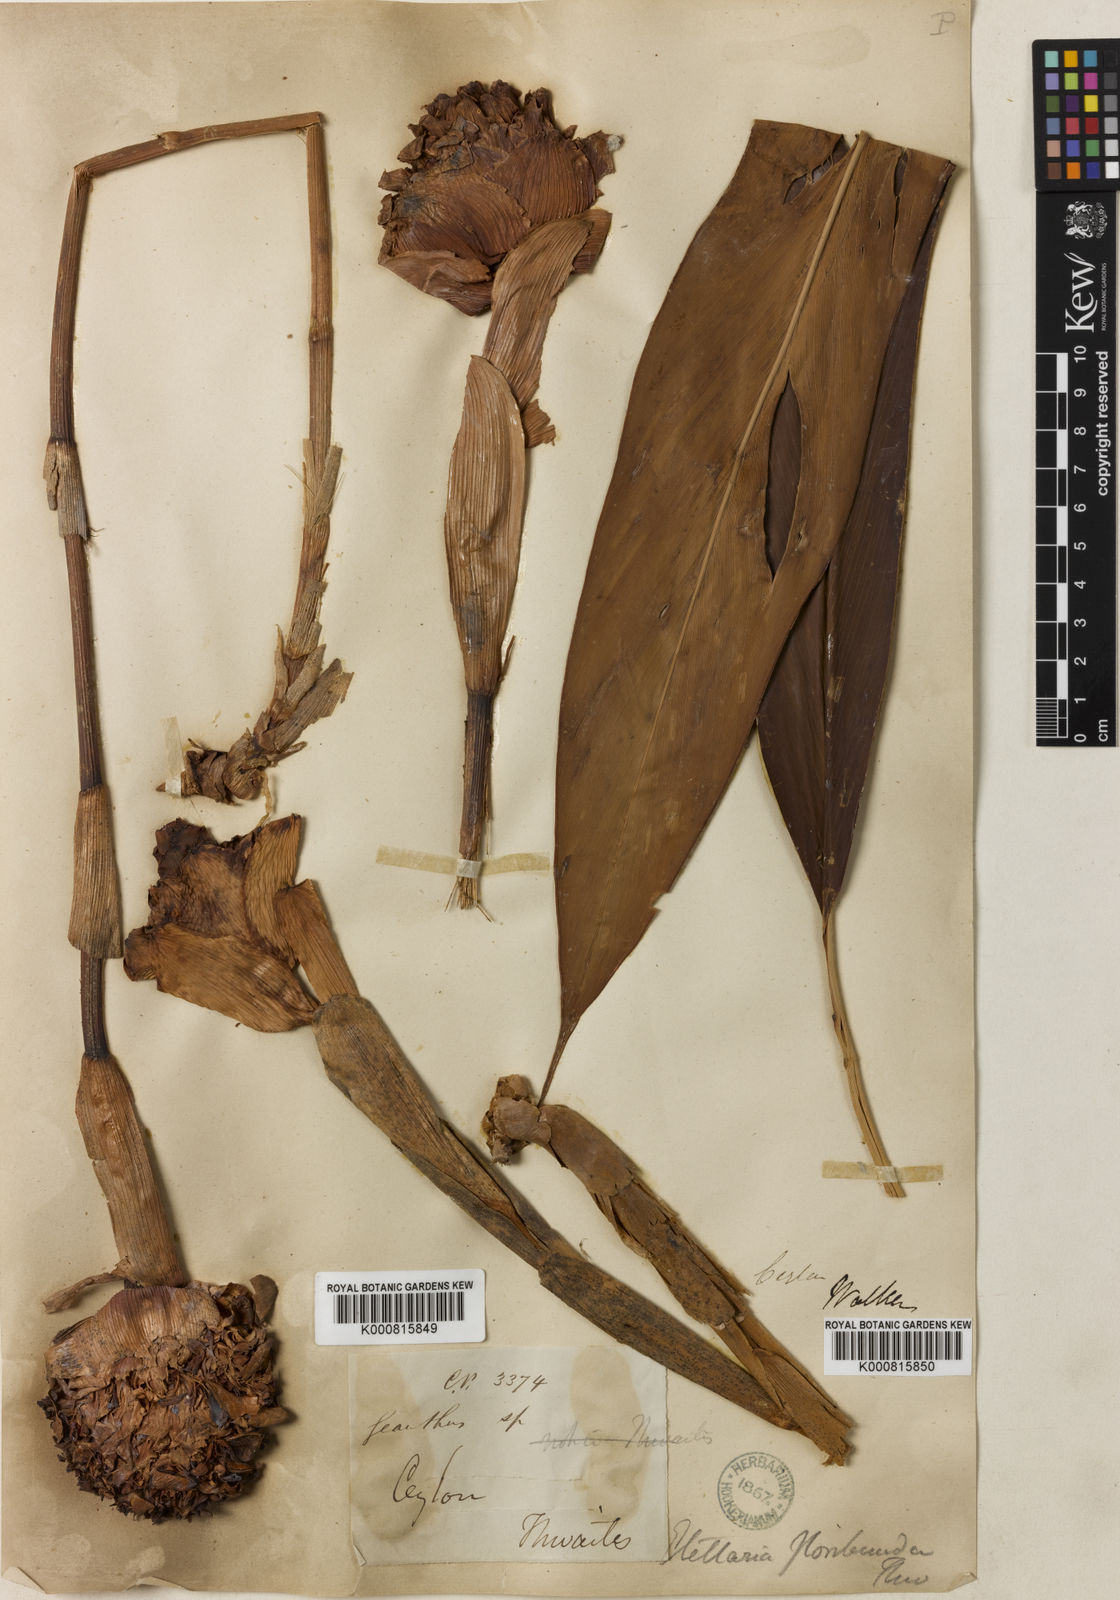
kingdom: Plantae
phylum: Tracheophyta
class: Liliopsida
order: Zingiberales
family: Zingiberaceae
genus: Alpinia
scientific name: Alpinia abundiflora
